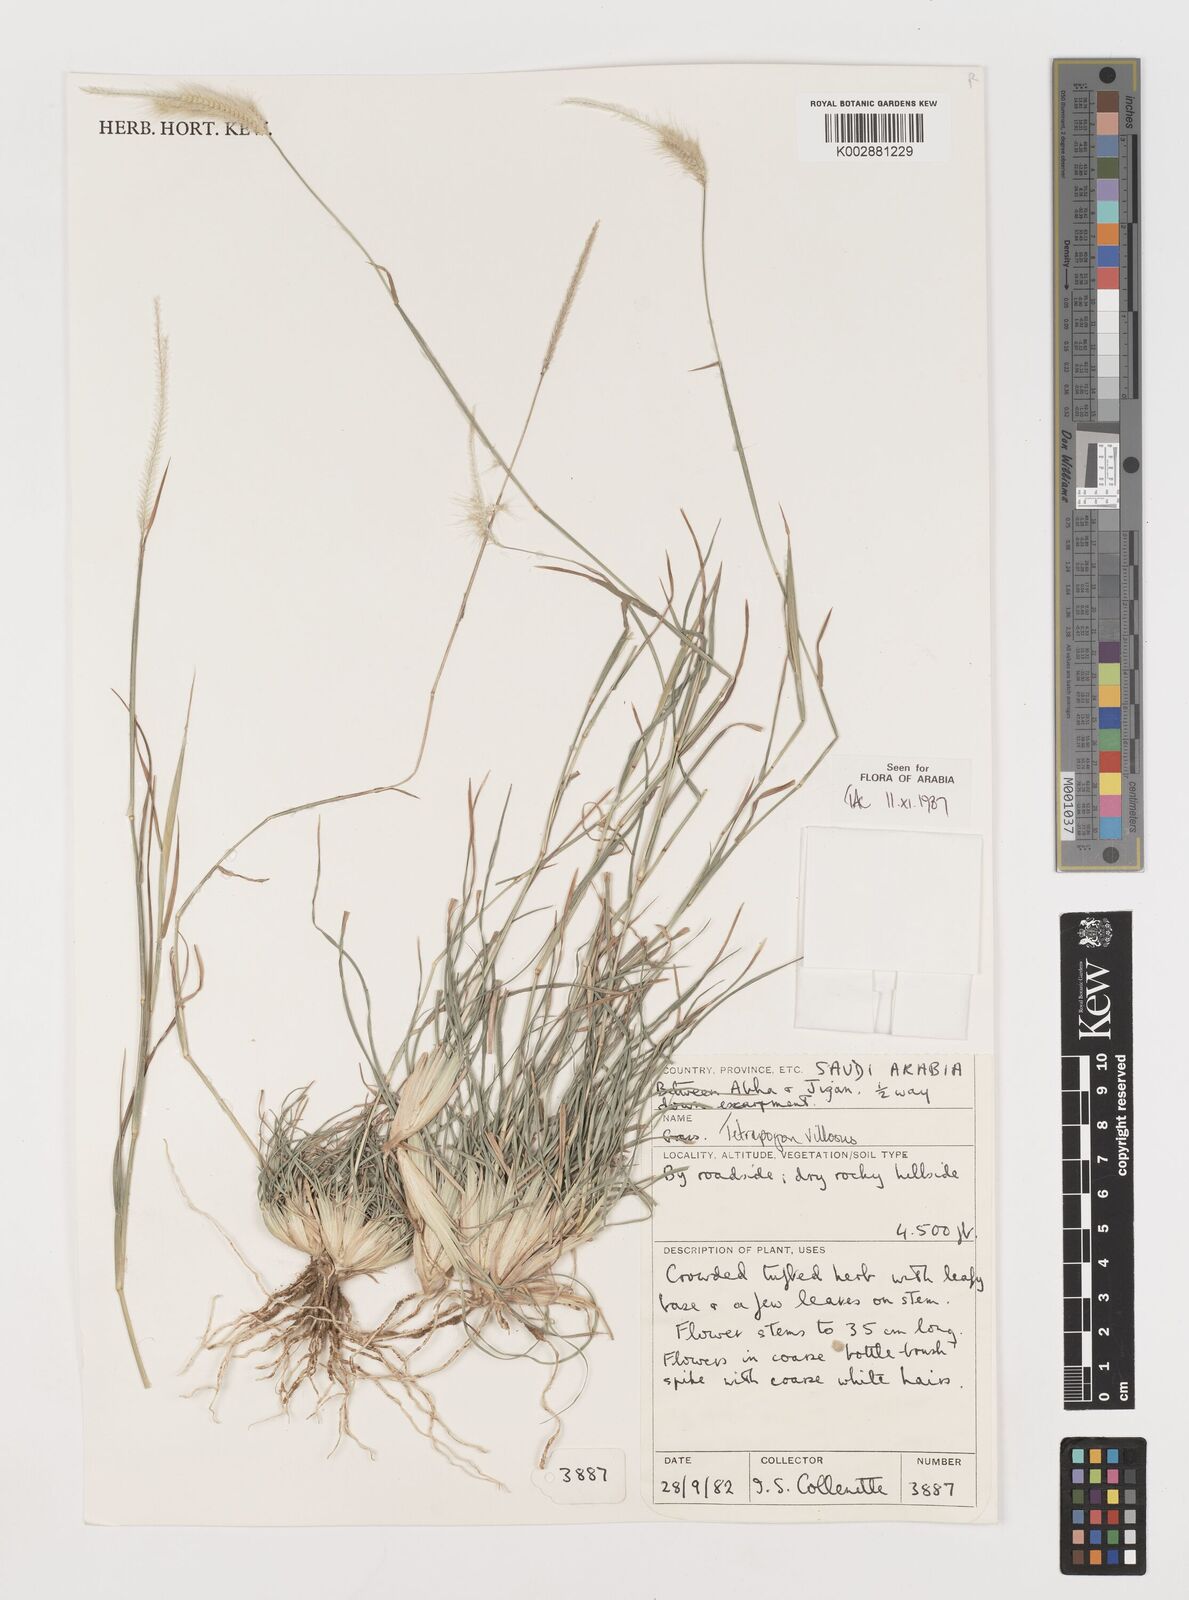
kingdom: Plantae
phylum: Tracheophyta
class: Liliopsida
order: Poales
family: Poaceae
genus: Tetrapogon
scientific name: Tetrapogon villosus
